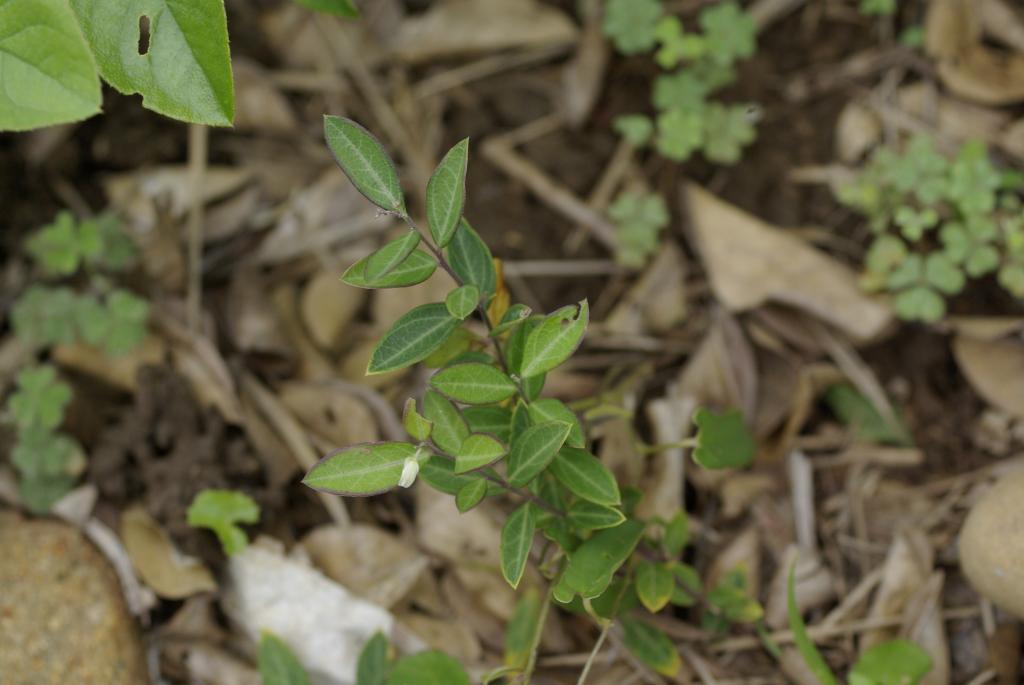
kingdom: Plantae
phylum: Tracheophyta
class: Magnoliopsida
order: Fabales
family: Polygalaceae
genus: Polygala
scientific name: Polygala japonica
